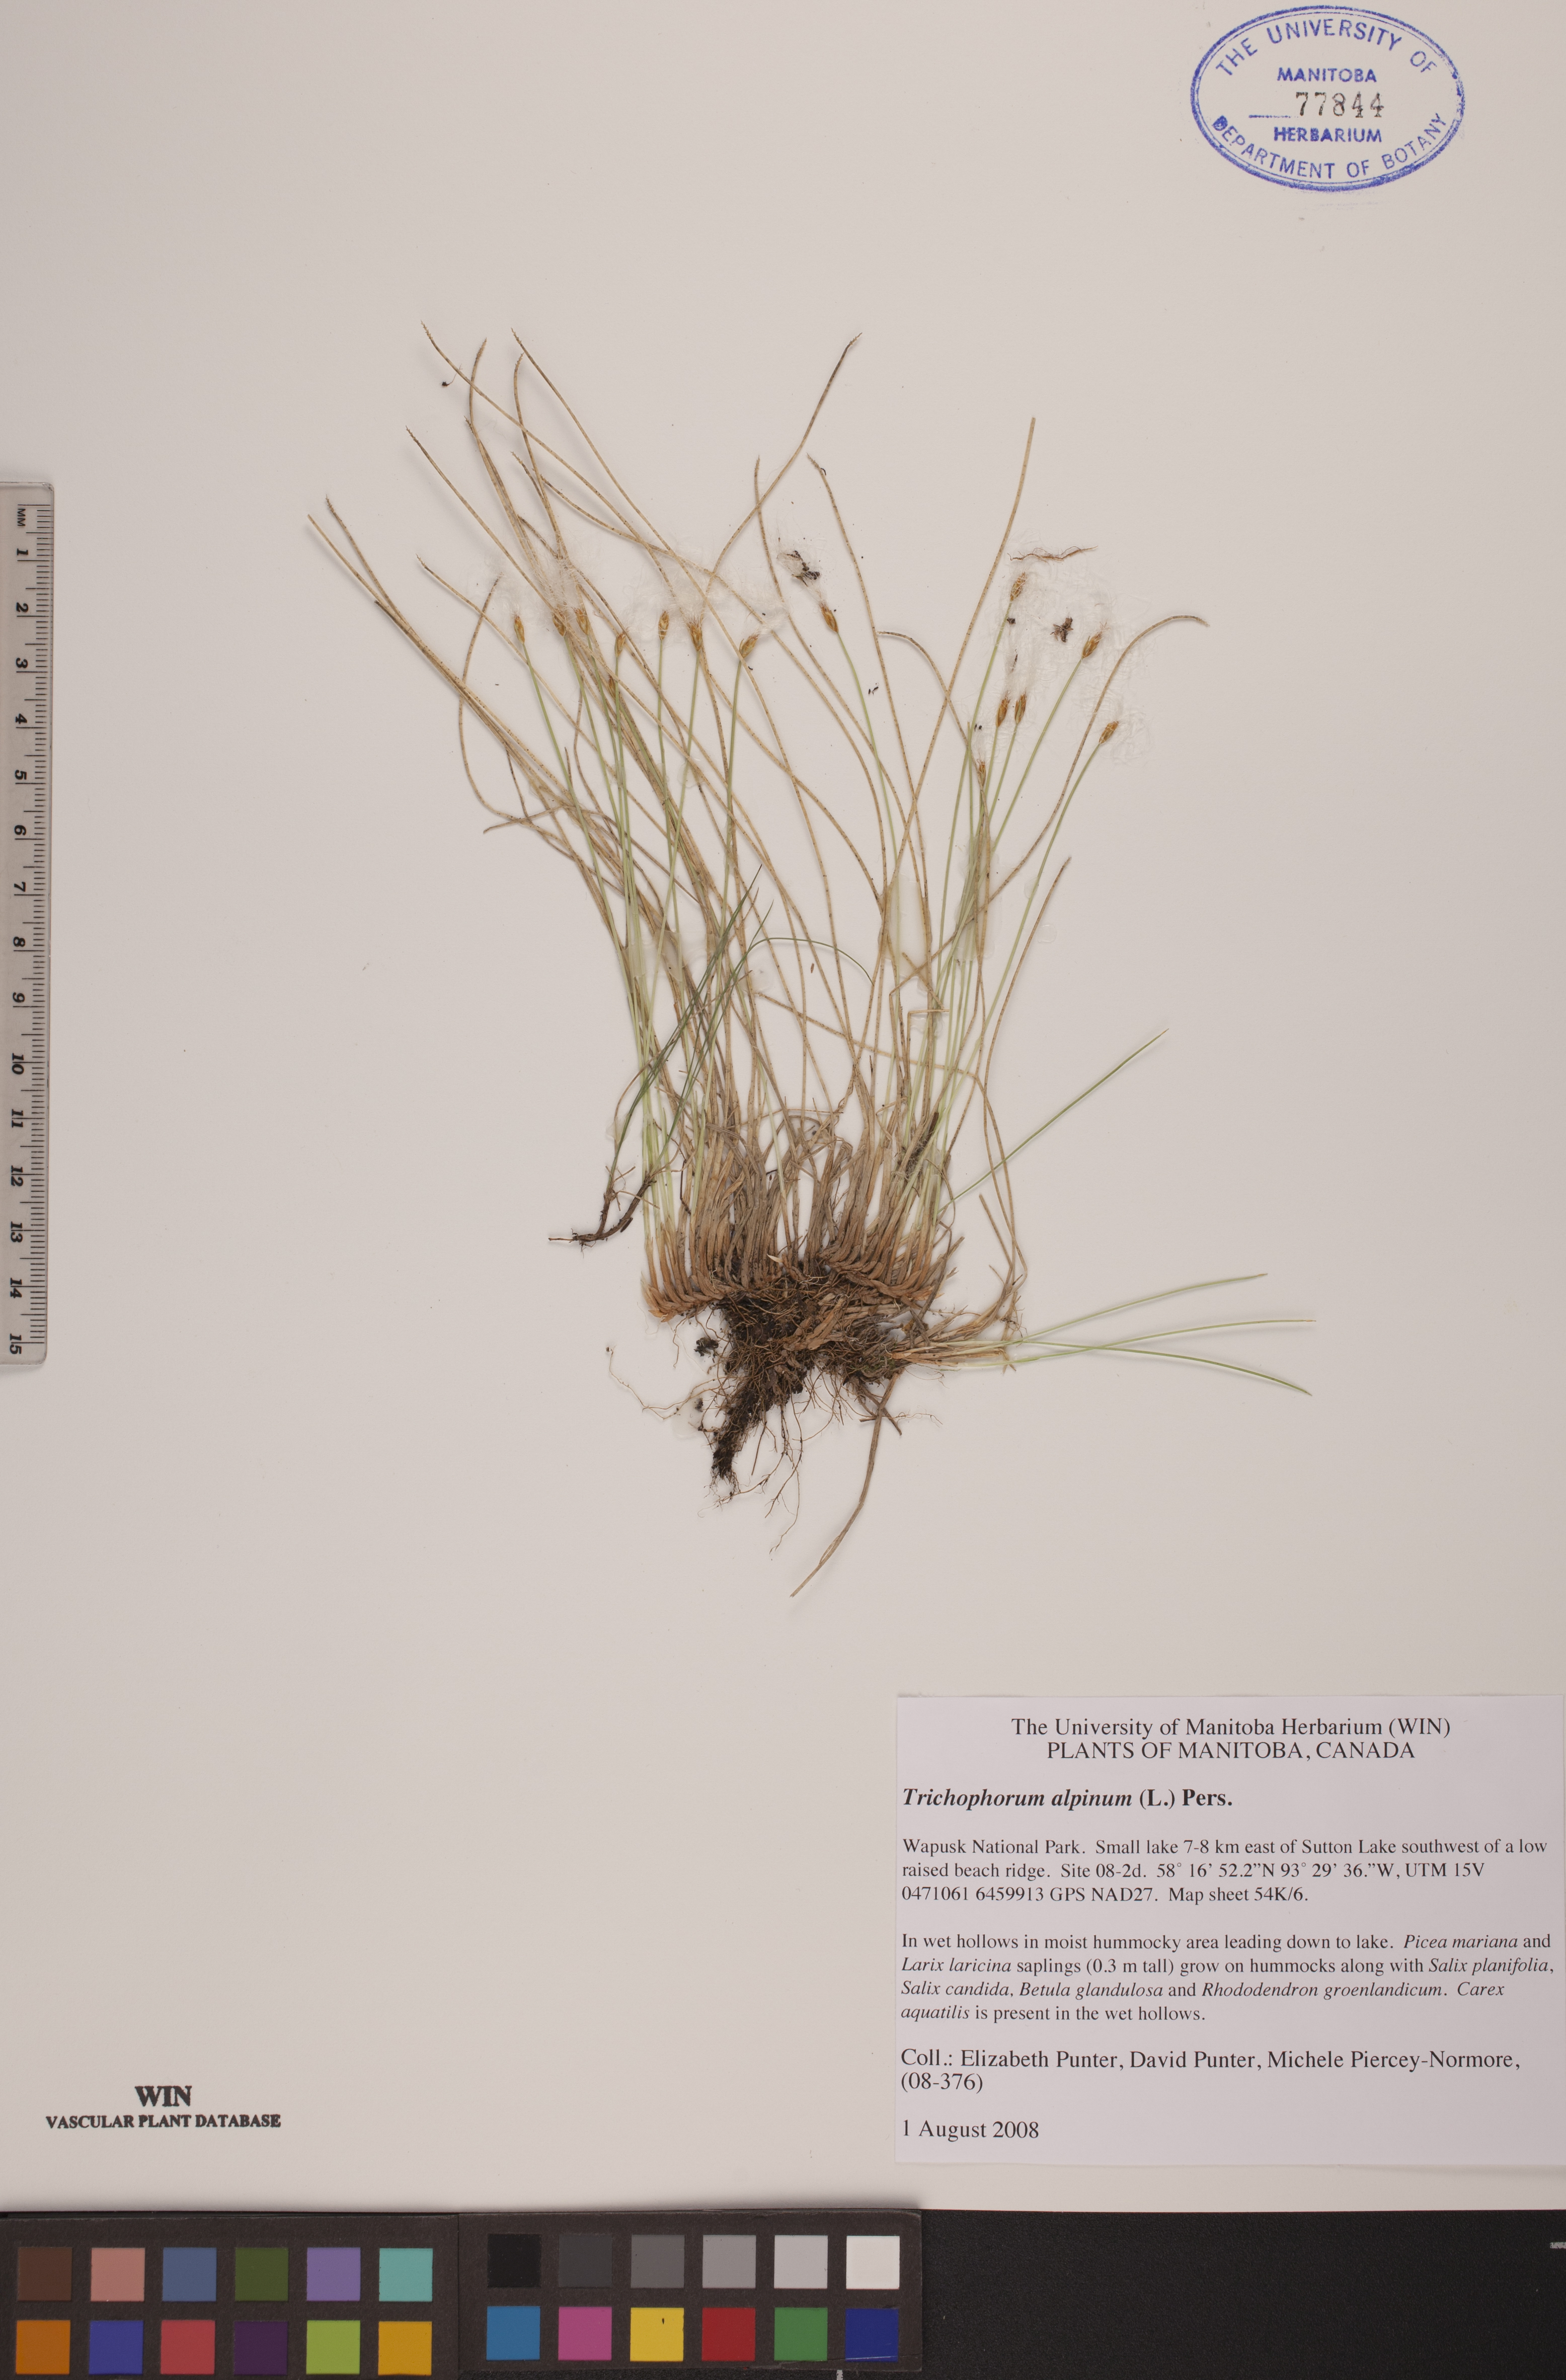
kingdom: Plantae
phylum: Tracheophyta
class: Liliopsida
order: Poales
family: Cyperaceae
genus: Trichophorum
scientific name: Trichophorum alpinum
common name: Alpine bulrush
